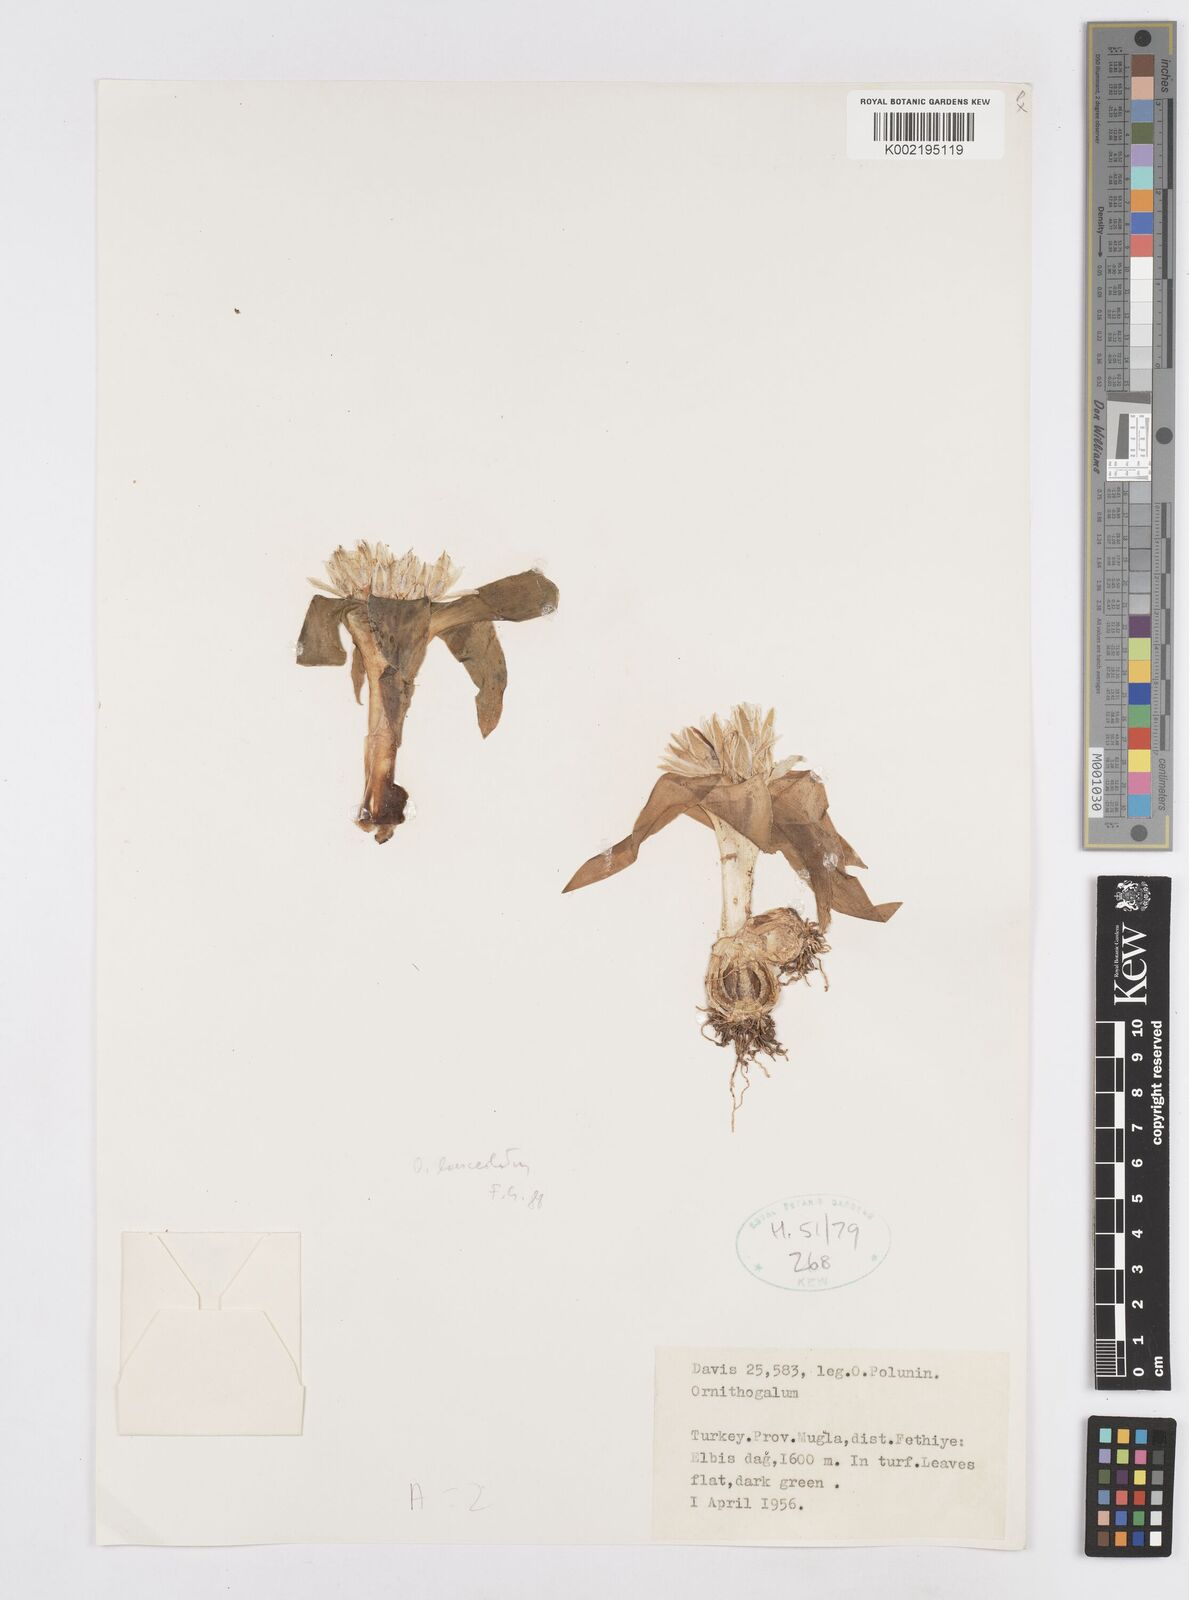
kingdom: Plantae
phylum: Tracheophyta
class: Liliopsida
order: Asparagales
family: Asparagaceae
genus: Ornithogalum
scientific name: Ornithogalum lanceolatum
